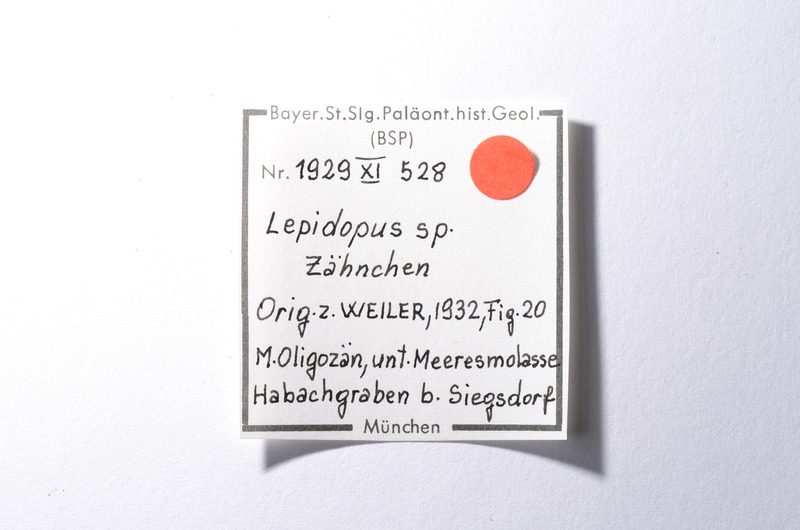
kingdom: Animalia
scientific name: Animalia
